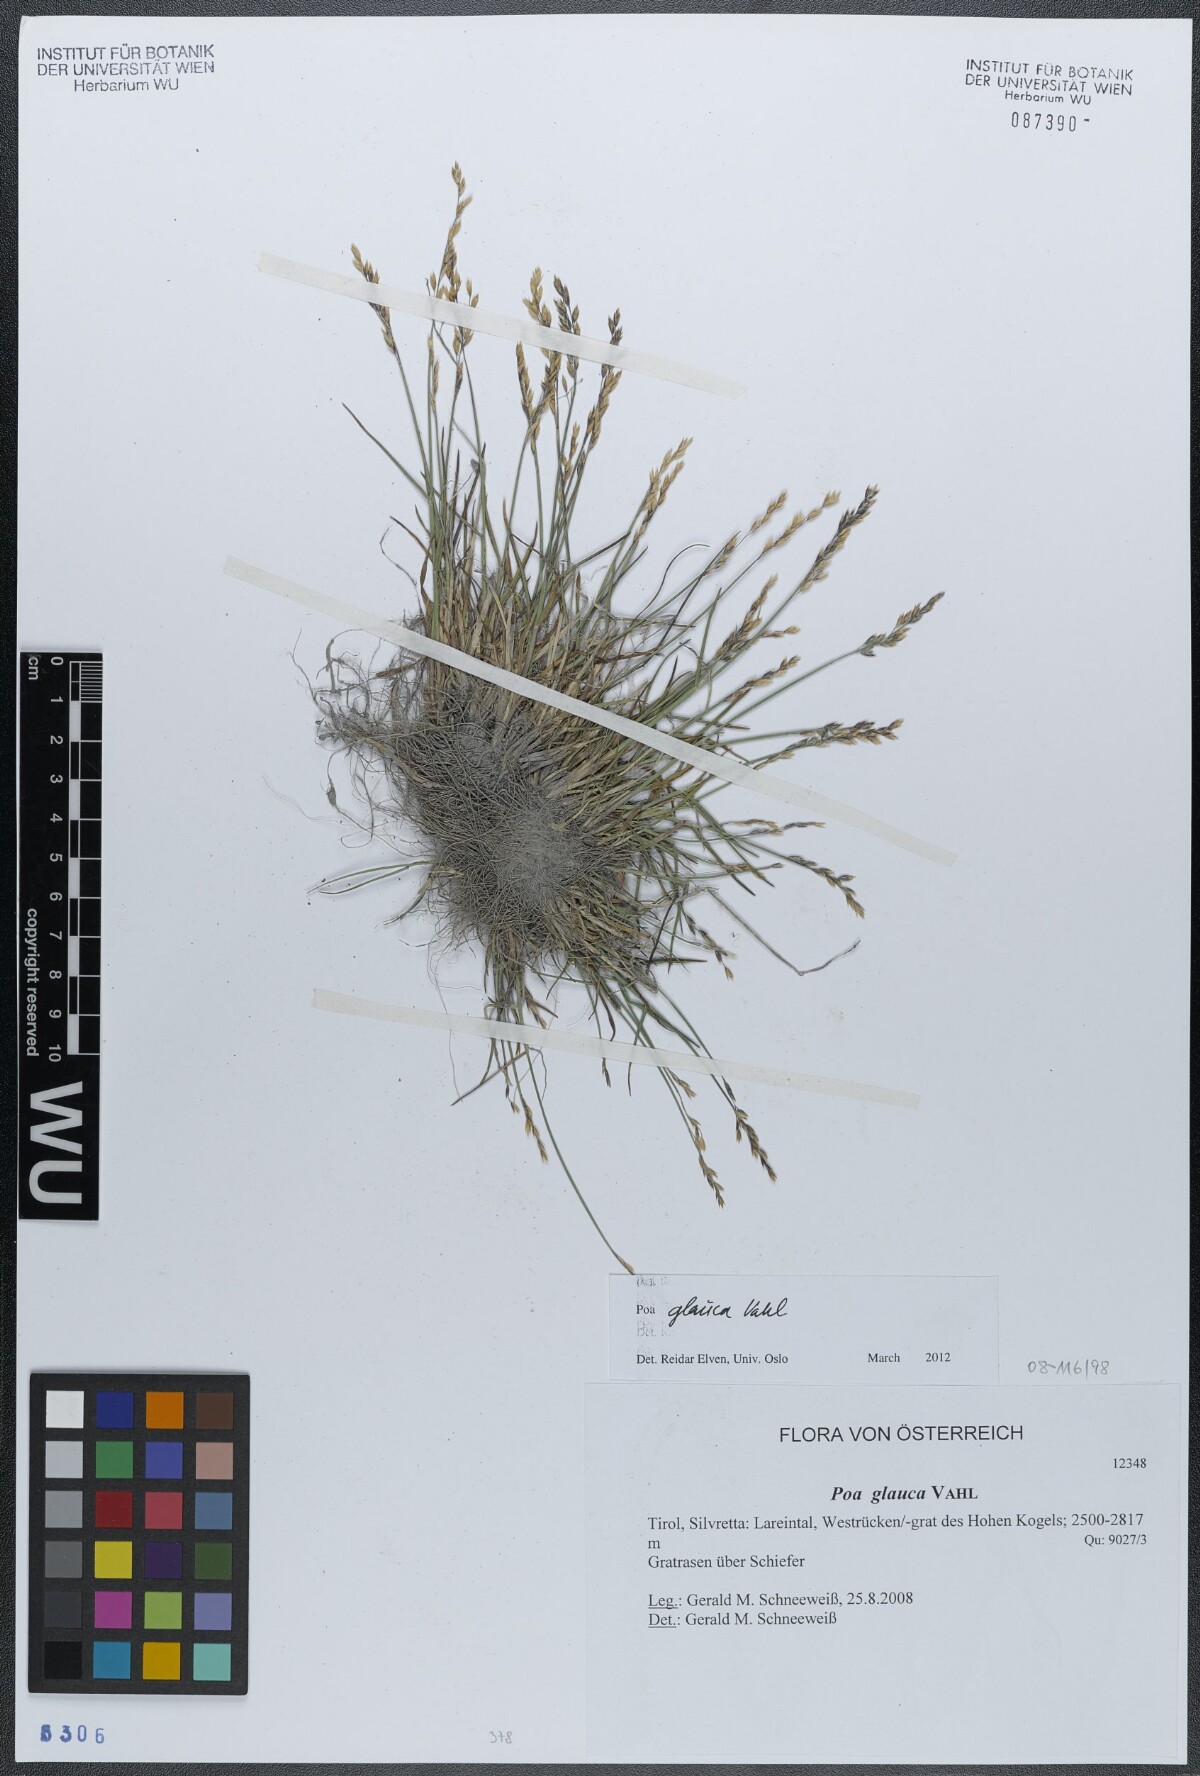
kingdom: Plantae
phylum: Tracheophyta
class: Liliopsida
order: Poales
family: Poaceae
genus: Poa
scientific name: Poa glauca
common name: Glaucous bluegrass
